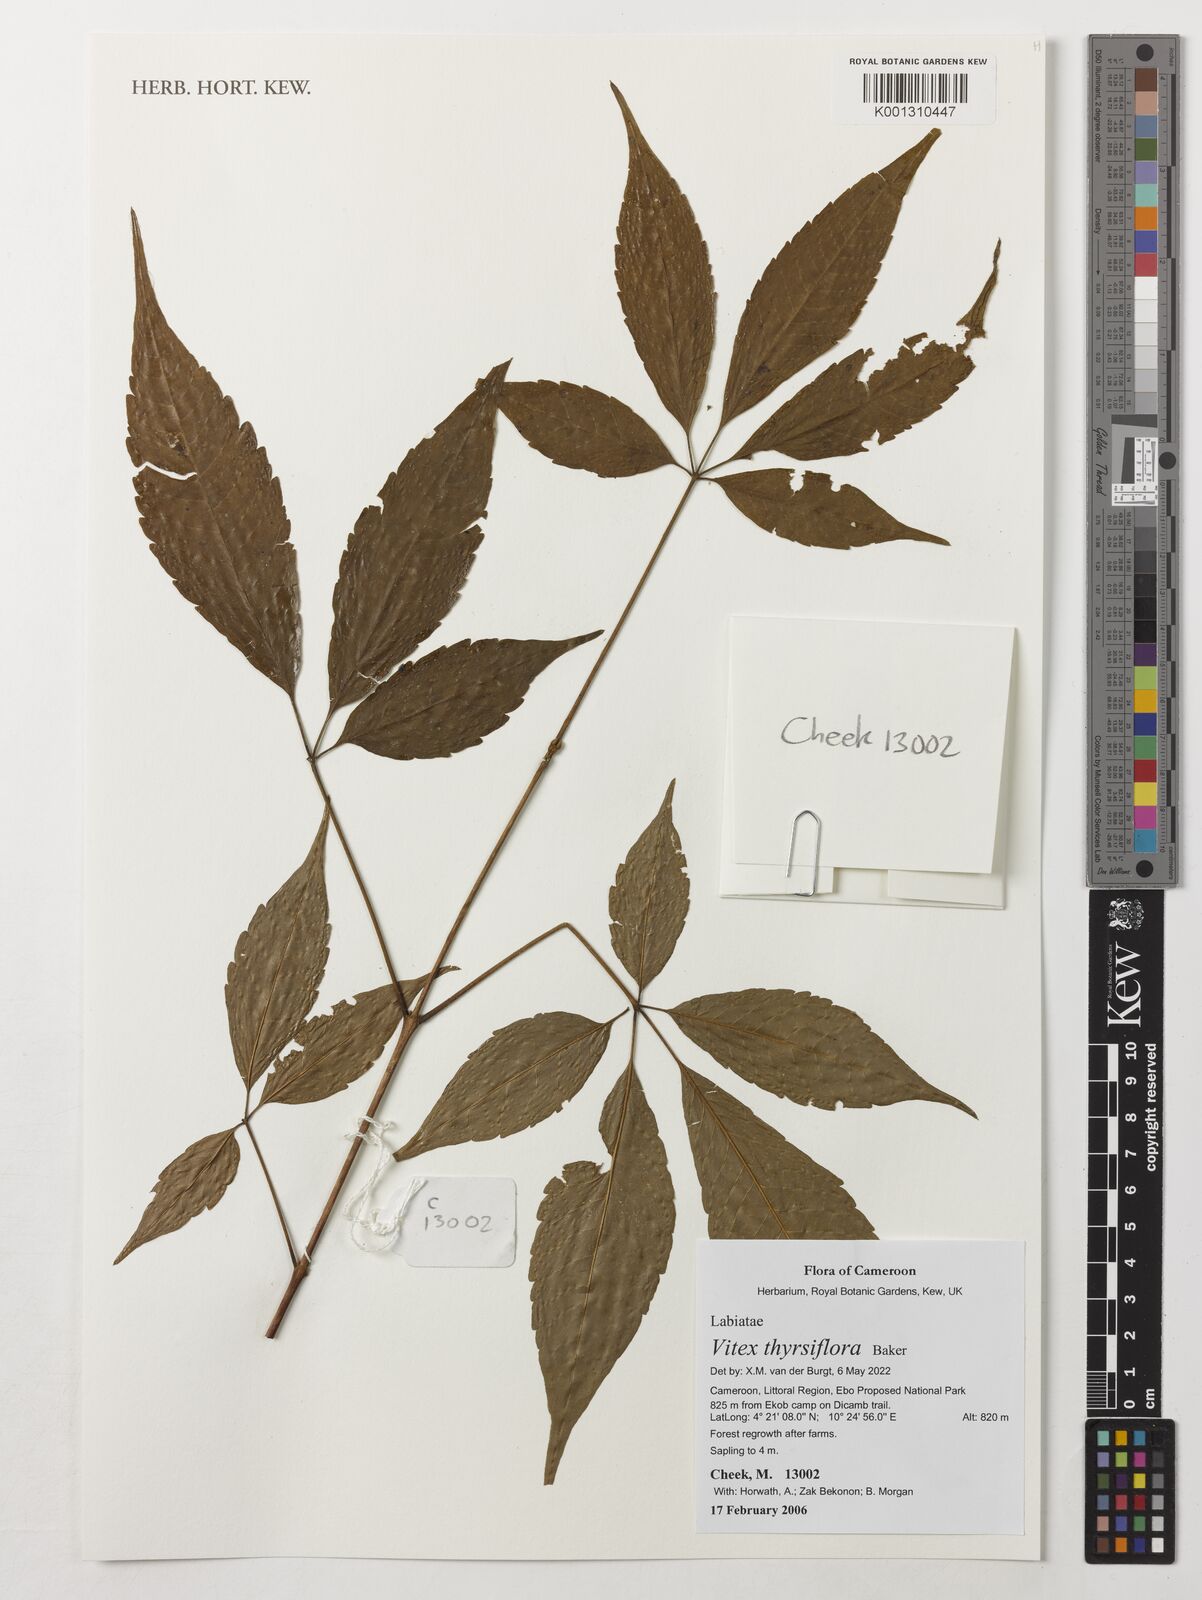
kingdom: Plantae
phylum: Tracheophyta
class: Magnoliopsida
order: Lamiales
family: Lamiaceae
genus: Vitex
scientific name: Vitex thyrsiflora
